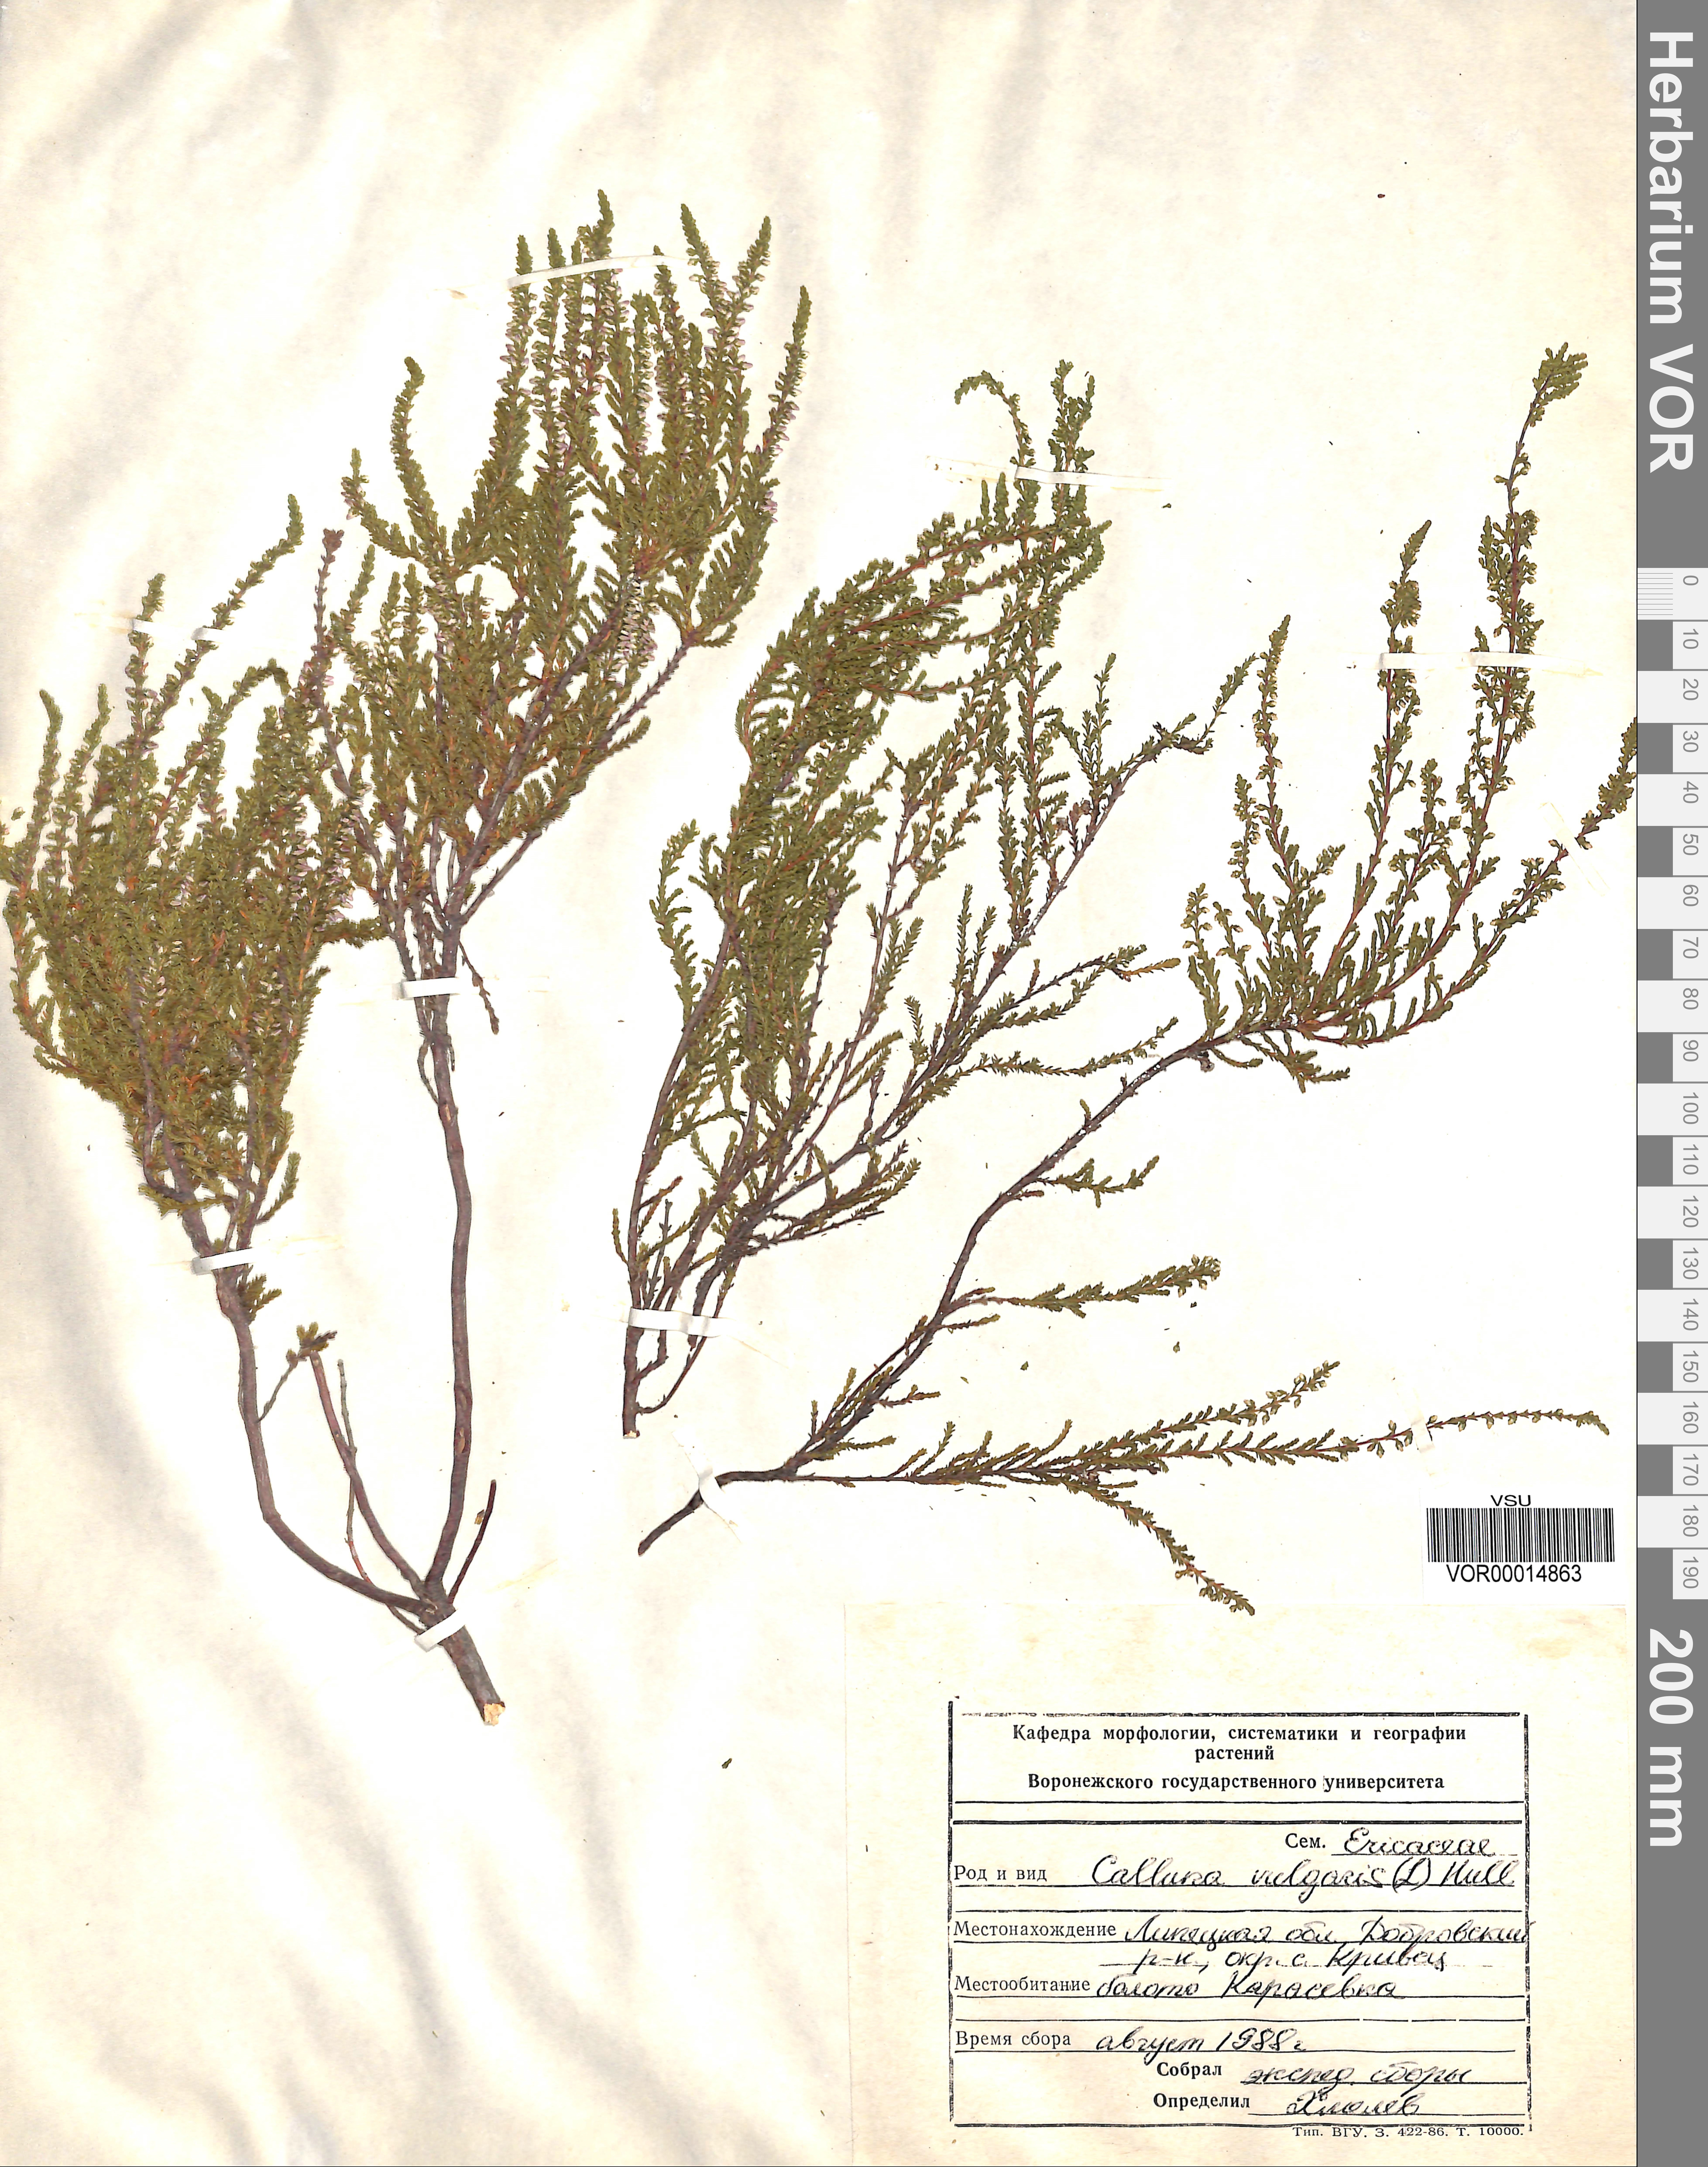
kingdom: Plantae
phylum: Tracheophyta
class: Magnoliopsida
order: Ericales
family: Ericaceae
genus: Calluna
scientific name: Calluna vulgaris
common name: Heather
